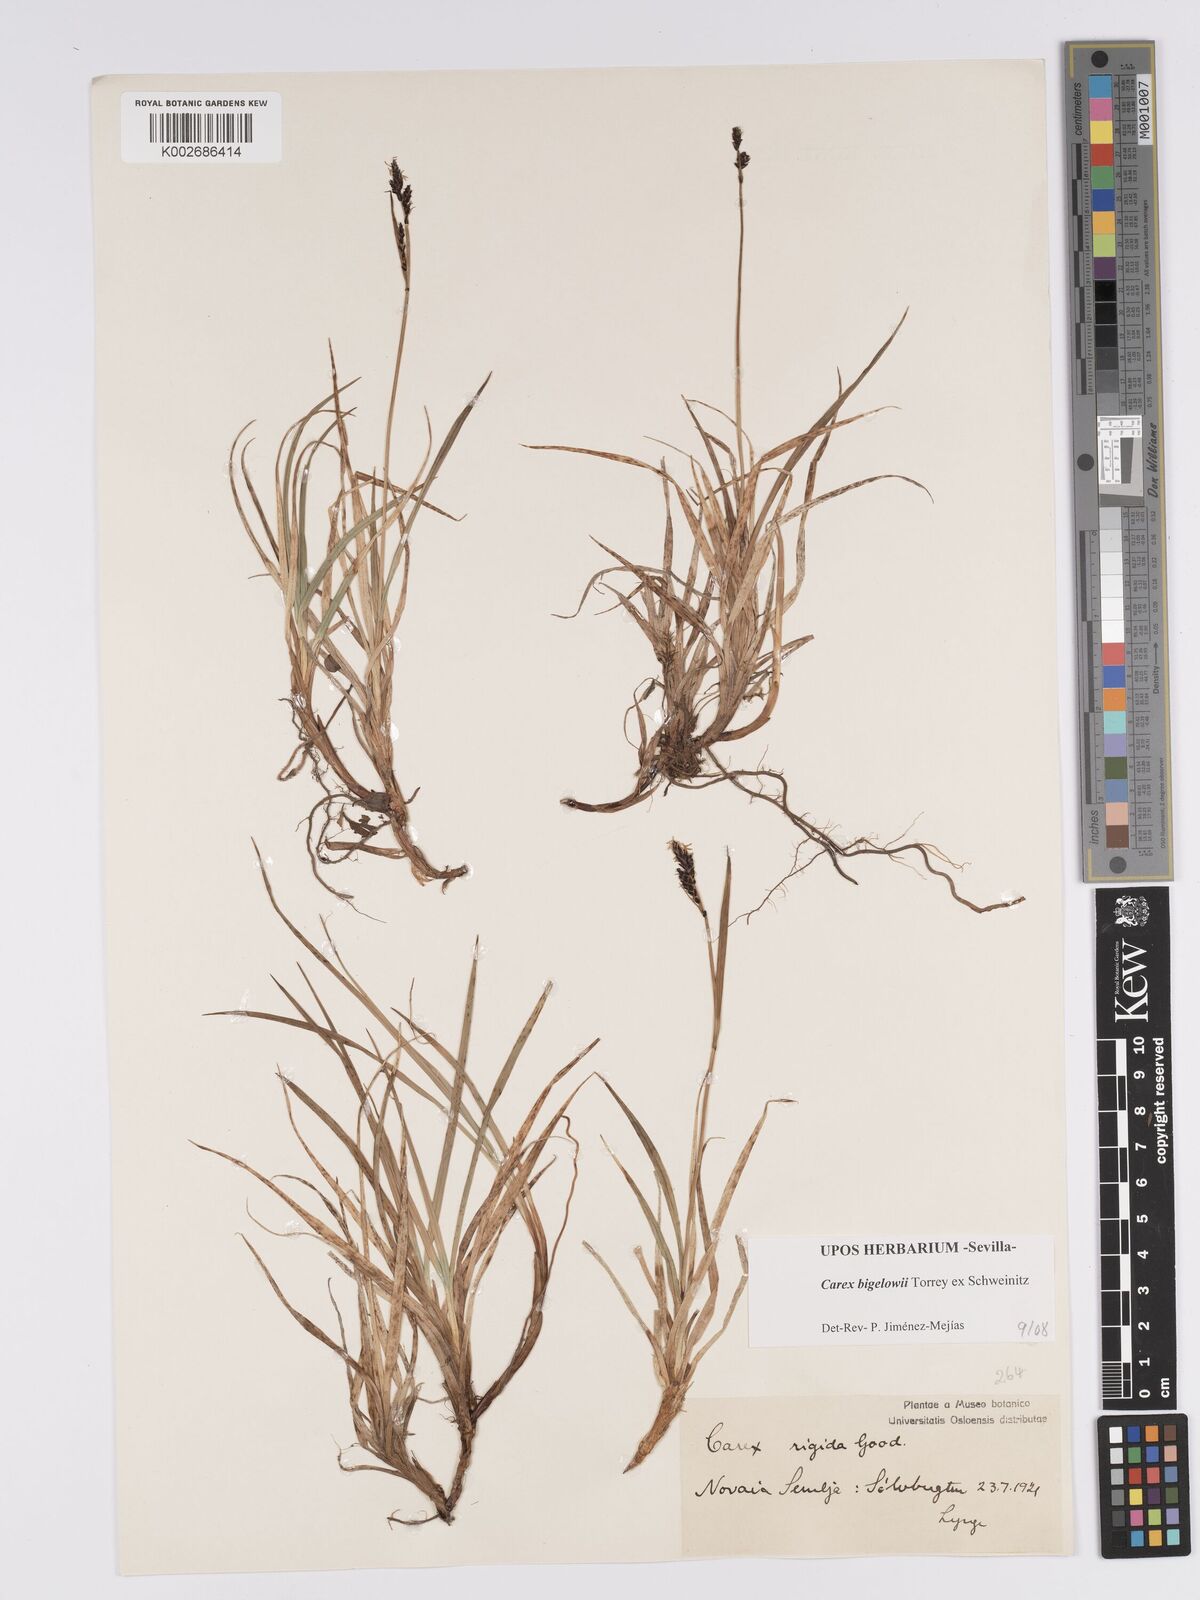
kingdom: Plantae
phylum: Tracheophyta
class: Liliopsida
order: Poales
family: Cyperaceae
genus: Carex
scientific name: Carex bigelowii
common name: Stiff sedge
